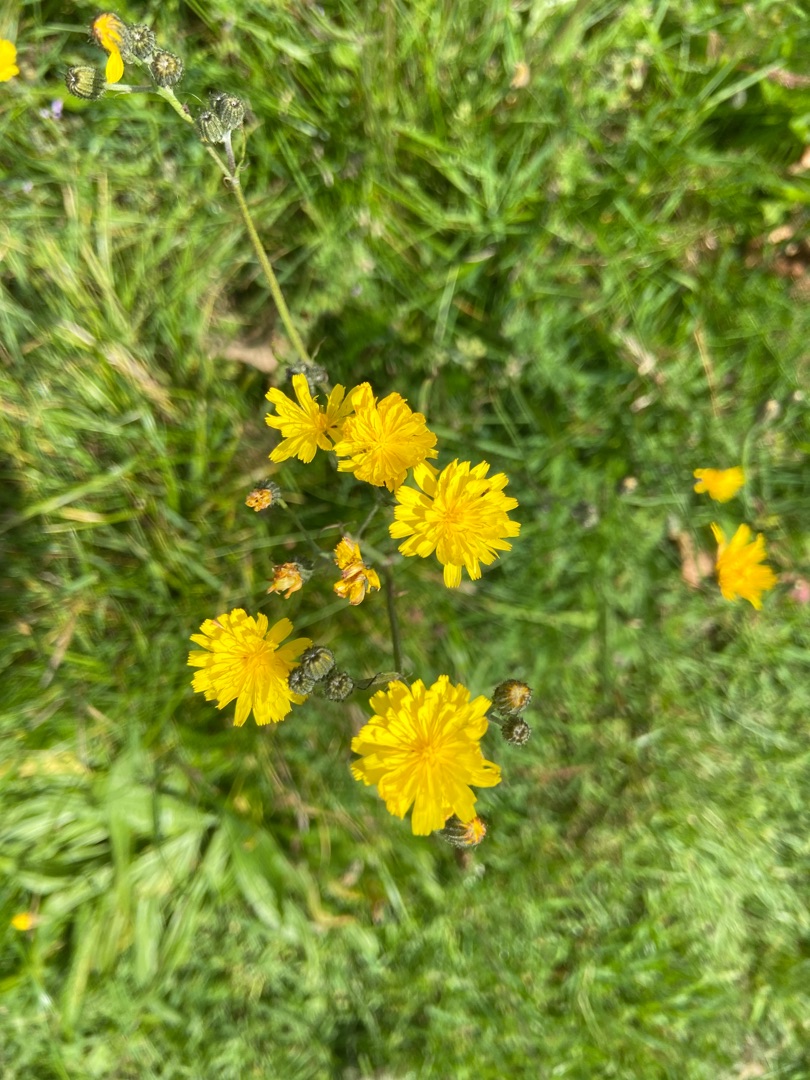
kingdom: Plantae
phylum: Tracheophyta
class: Magnoliopsida
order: Asterales
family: Asteraceae
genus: Crepis
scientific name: Crepis capillaris
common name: Grøn høgeskæg
